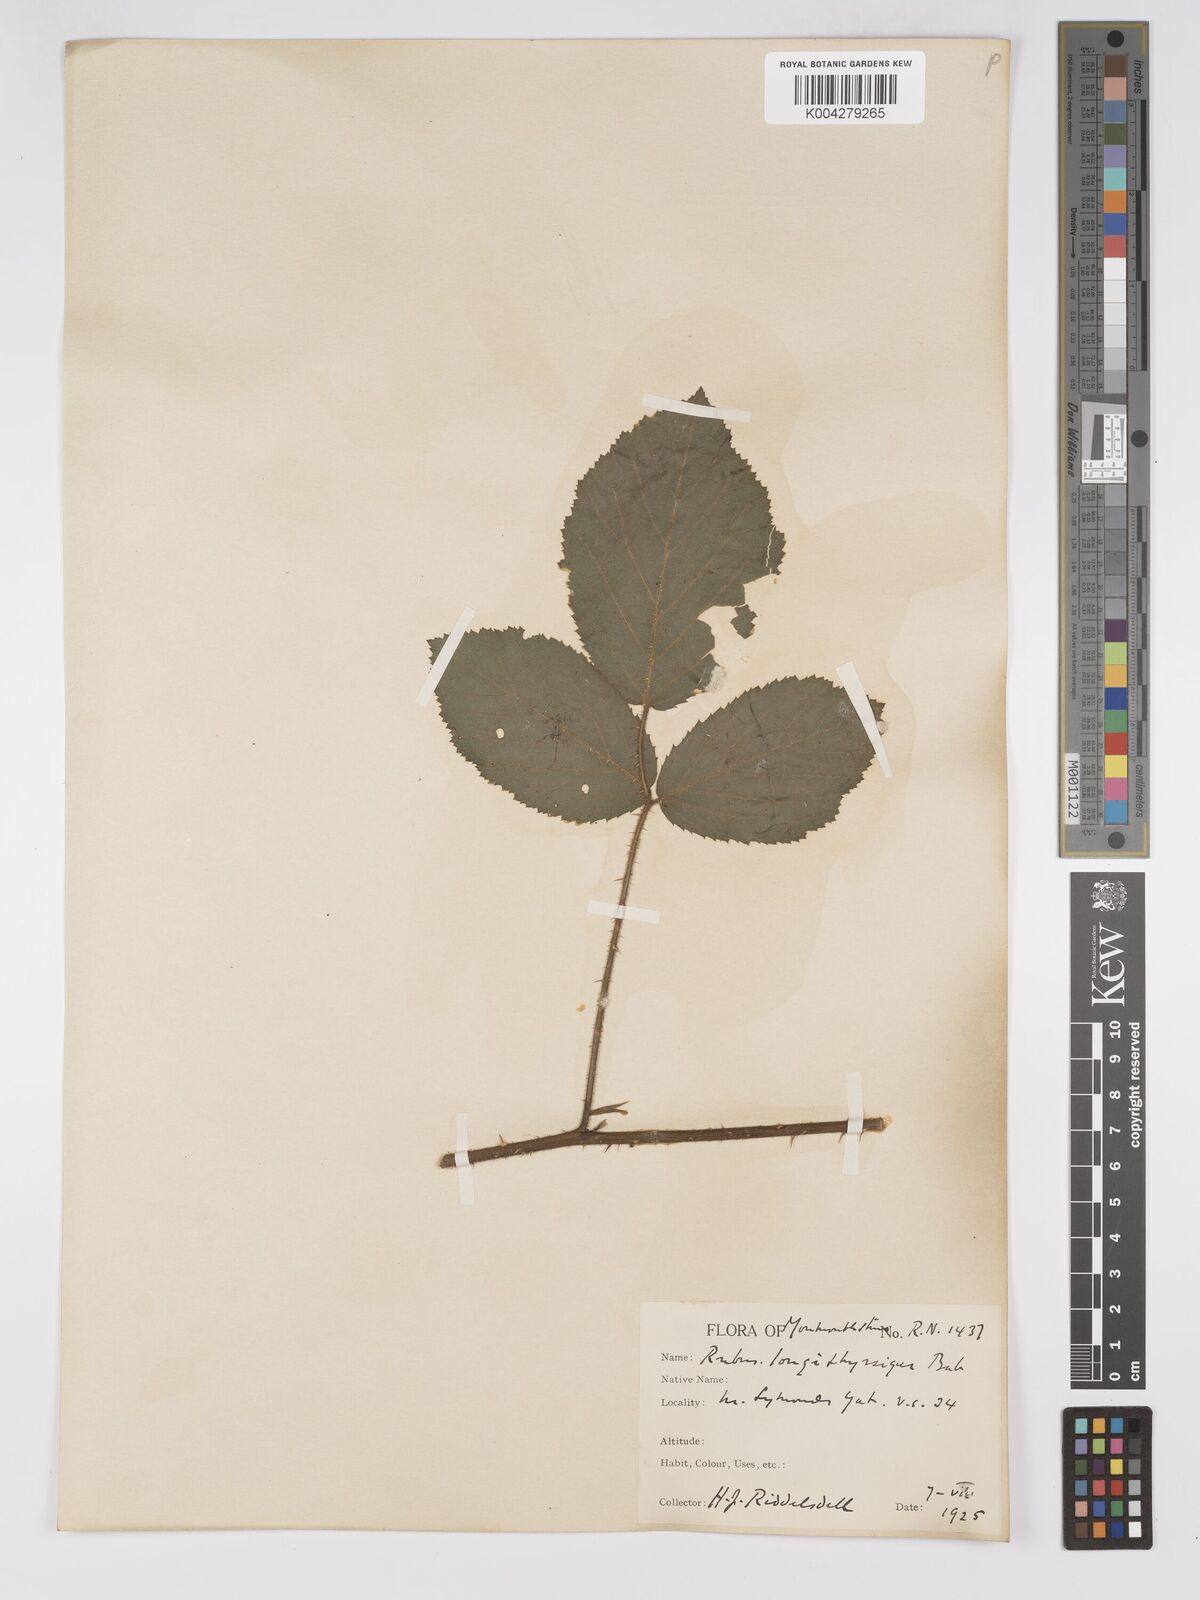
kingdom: Plantae
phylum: Tracheophyta
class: Magnoliopsida
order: Rosales
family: Rosaceae
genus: Rubus
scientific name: Rubus longithyrsiger
